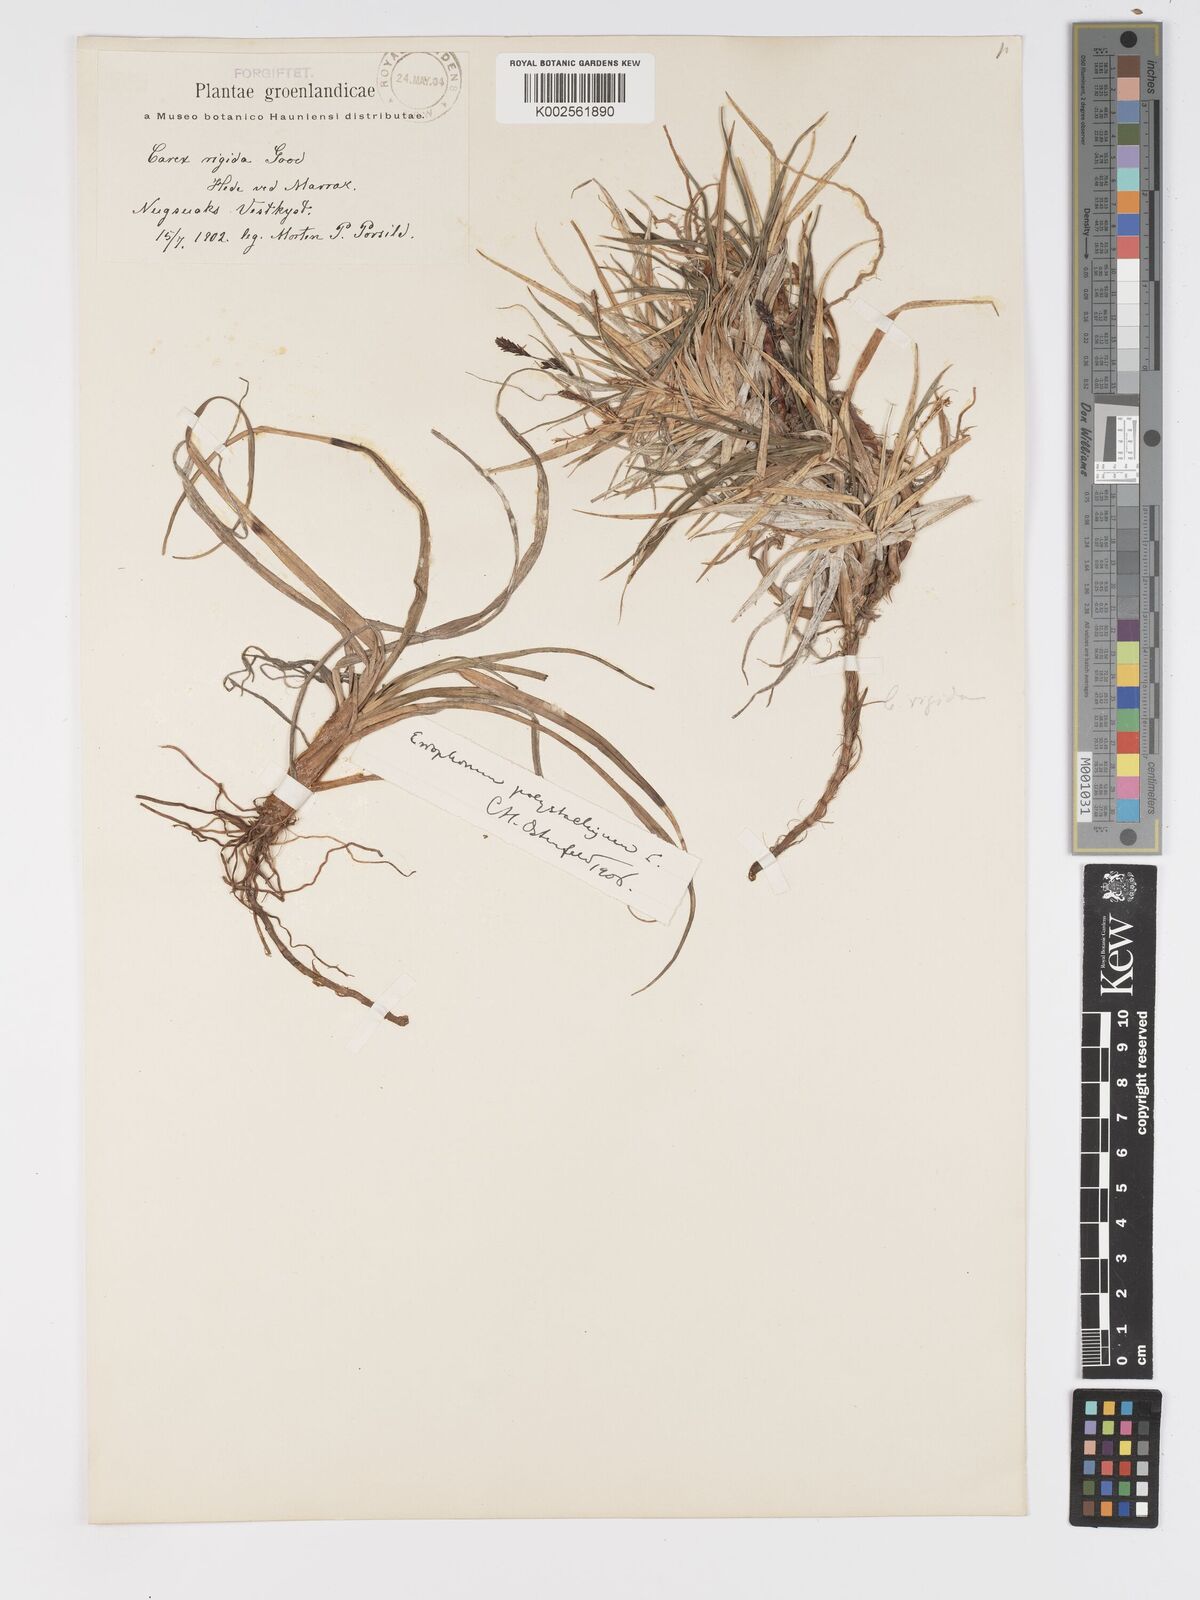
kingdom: Plantae
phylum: Tracheophyta
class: Liliopsida
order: Poales
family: Cyperaceae
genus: Carex
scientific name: Carex bigelowii
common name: Stiff sedge
